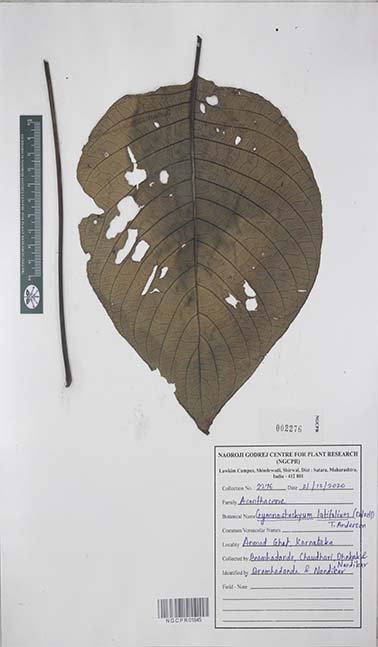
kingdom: Plantae
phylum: Tracheophyta
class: Magnoliopsida
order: Lamiales
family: Acanthaceae
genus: Gymnostachyum
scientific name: Gymnostachyum latifolium
